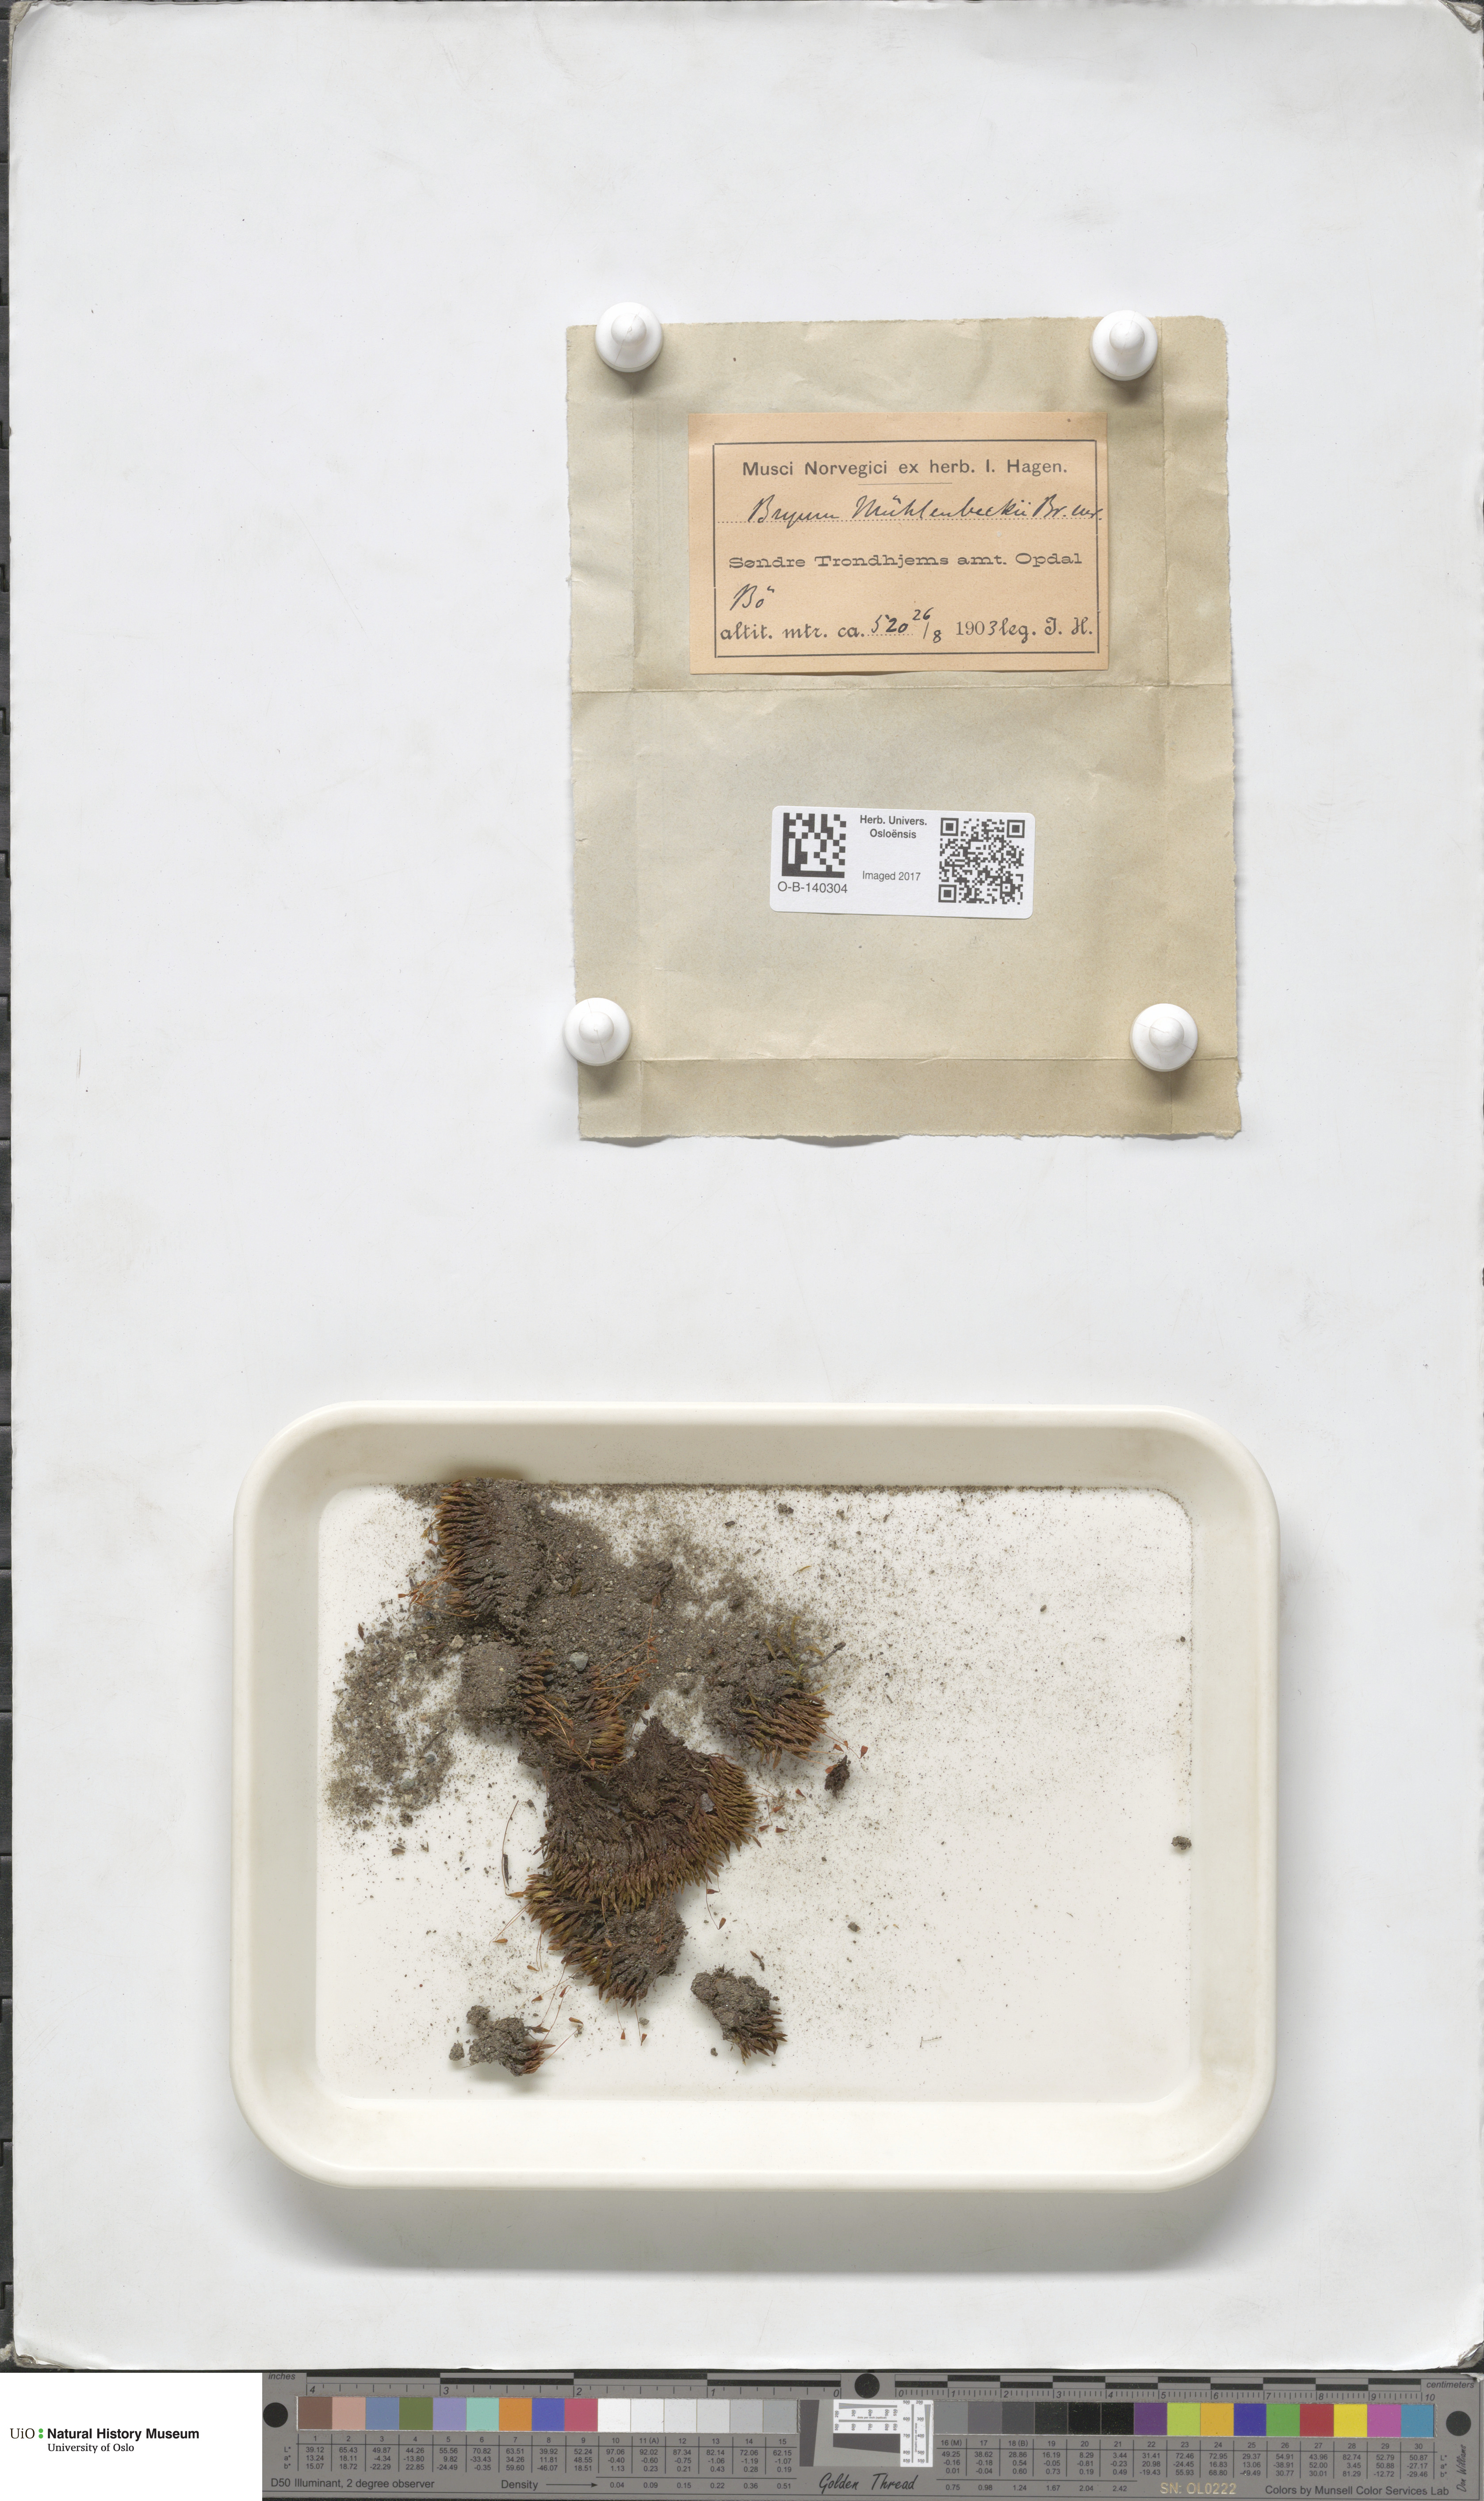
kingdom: Plantae
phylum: Bryophyta
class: Bryopsida
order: Bryales
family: Bryaceae
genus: Imbribryum
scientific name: Imbribryum muehlenbeckii
